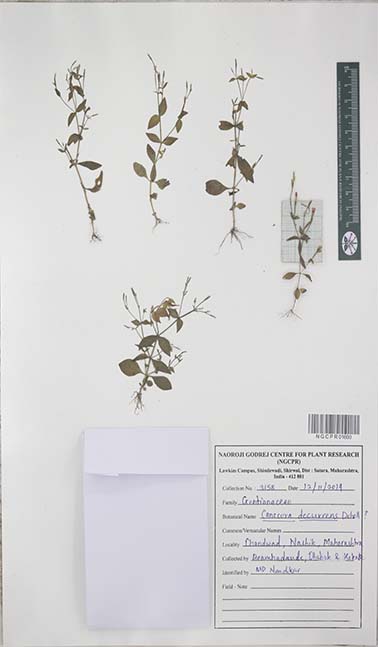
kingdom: Plantae
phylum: Tracheophyta
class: Magnoliopsida
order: Gentianales
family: Gentianaceae
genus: Canscora
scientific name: Canscora diffusa
